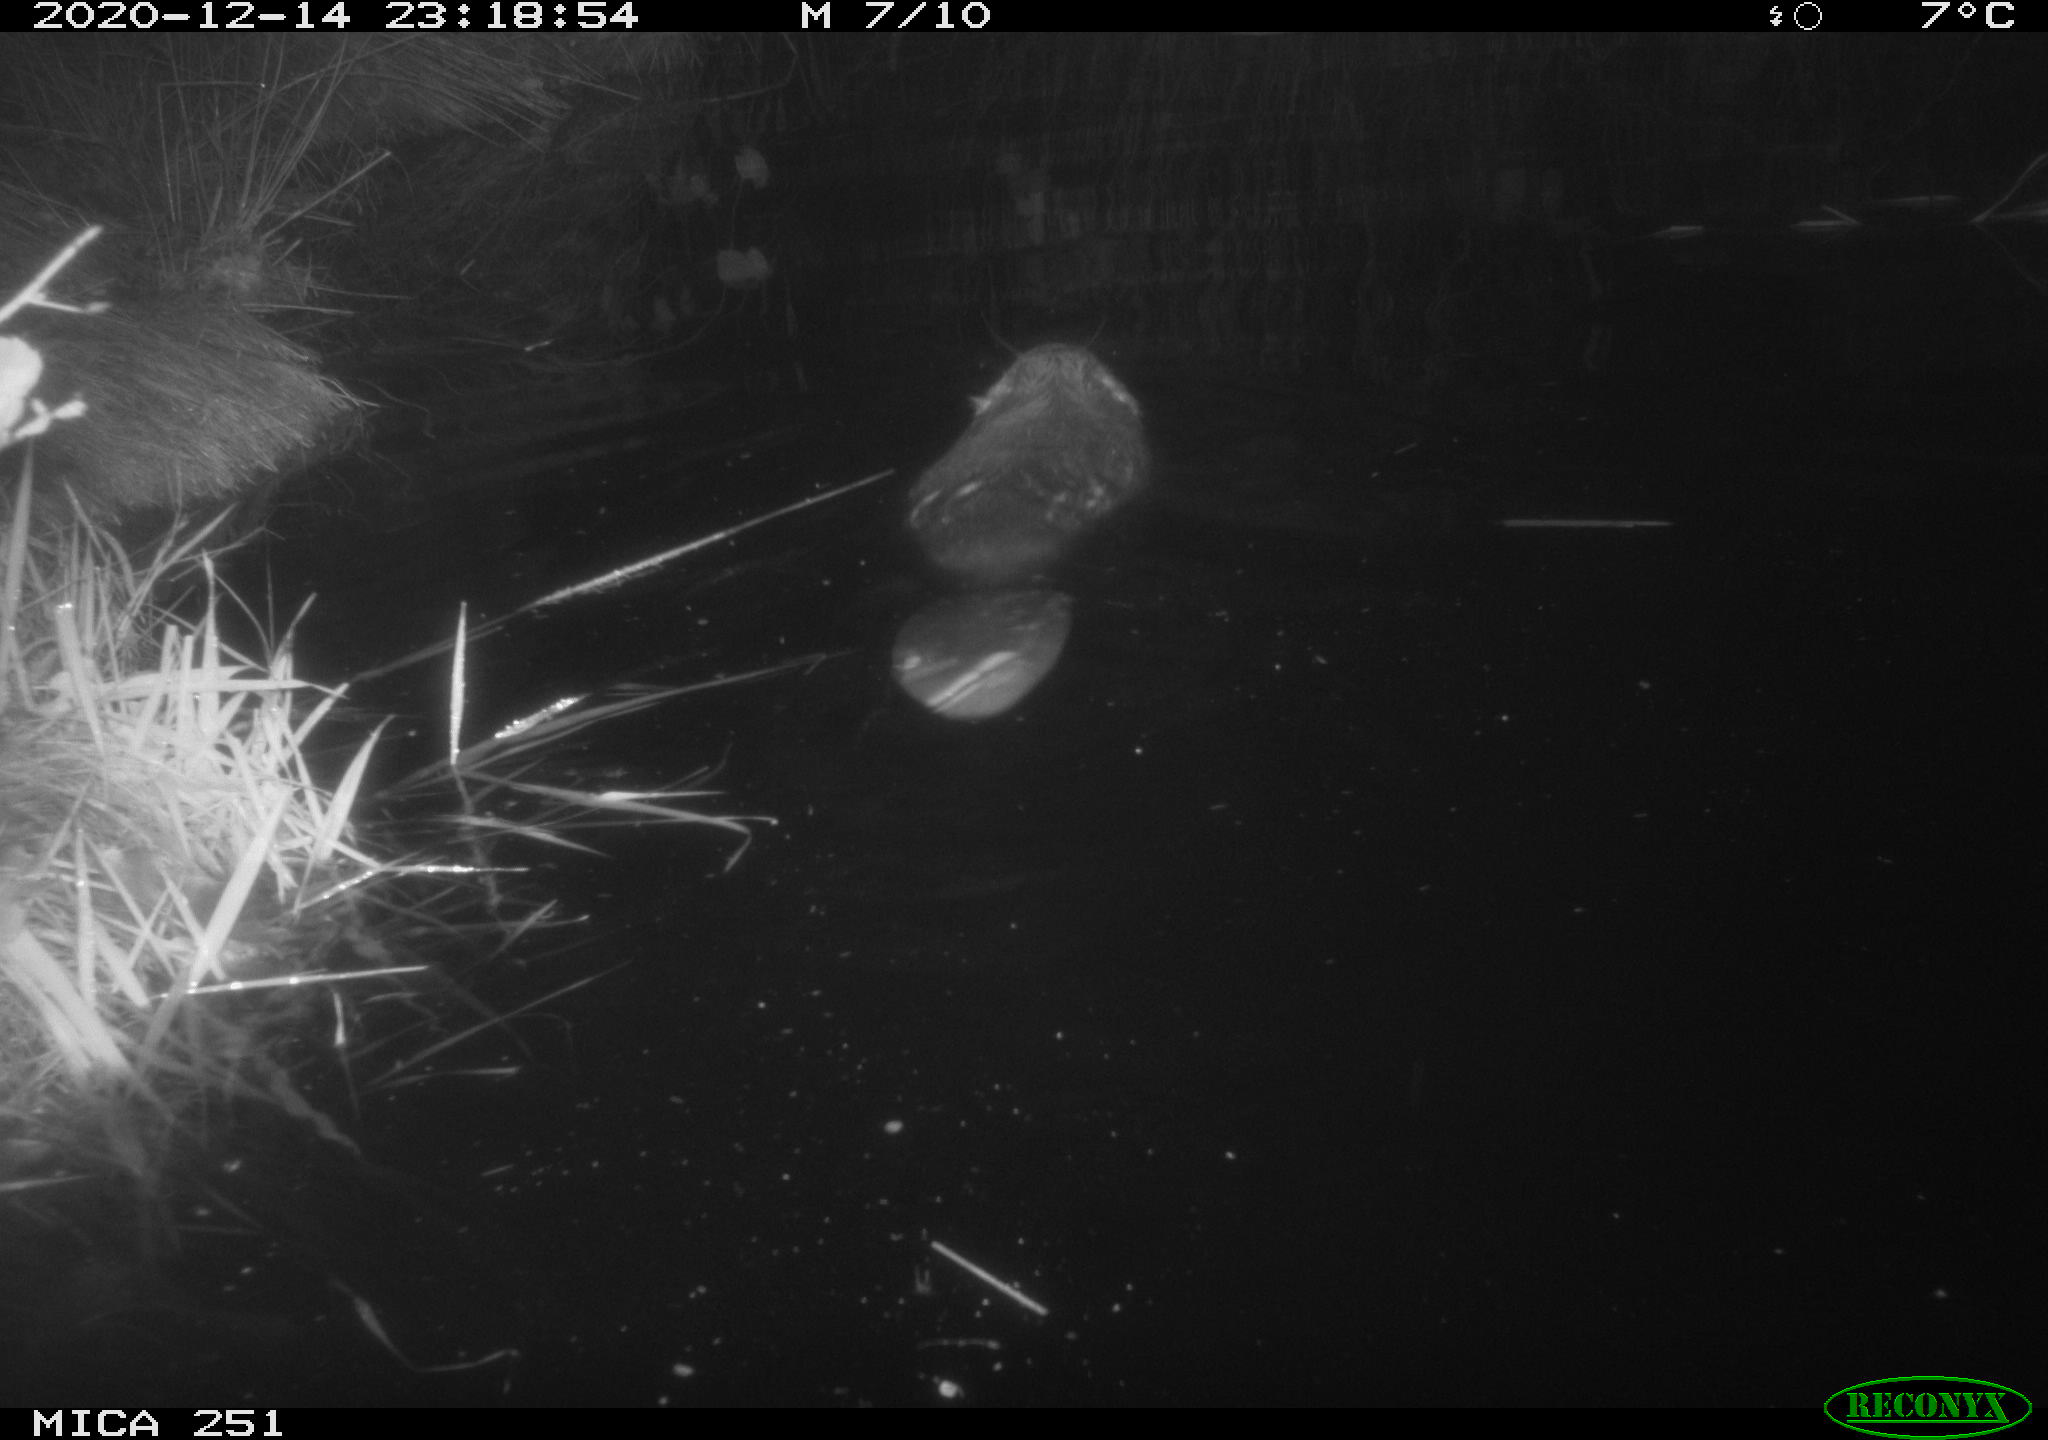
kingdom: Animalia
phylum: Chordata
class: Mammalia
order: Rodentia
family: Castoridae
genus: Castor
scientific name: Castor fiber
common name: Eurasian beaver
